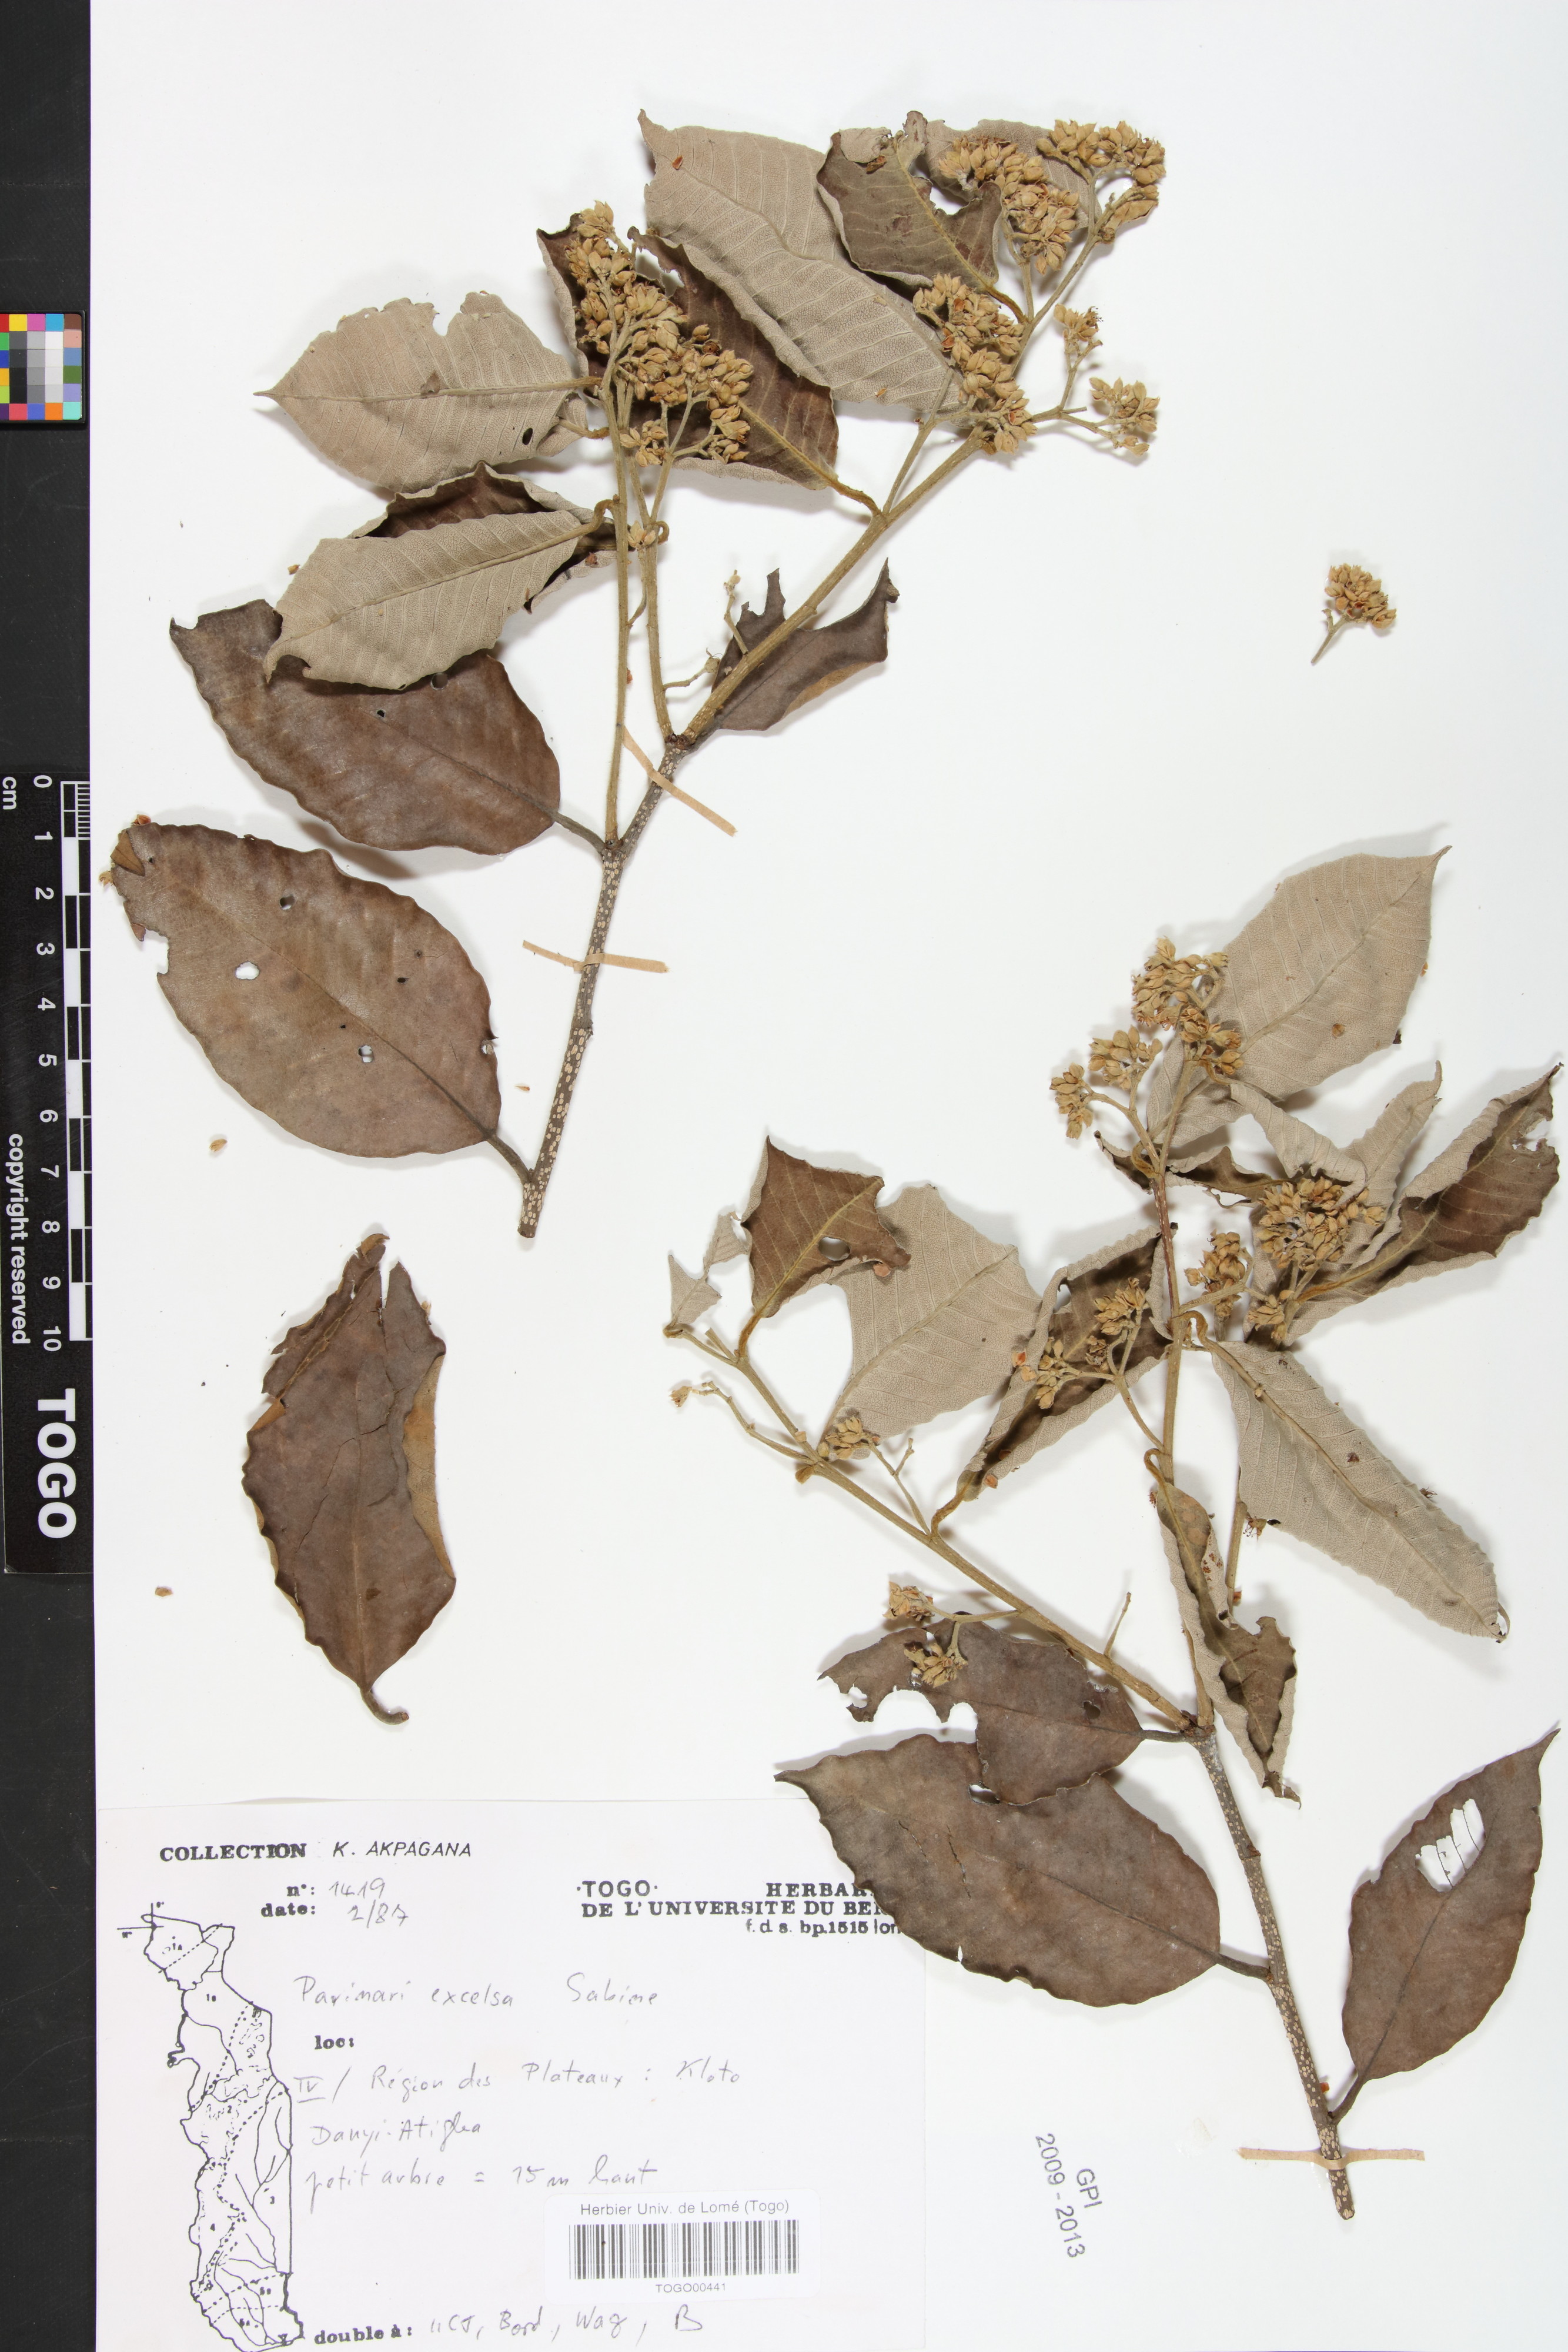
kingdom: Plantae
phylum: Tracheophyta
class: Magnoliopsida
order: Malpighiales
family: Chrysobalanaceae
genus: Parinari
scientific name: Parinari excelsa
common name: Guinea-plum
